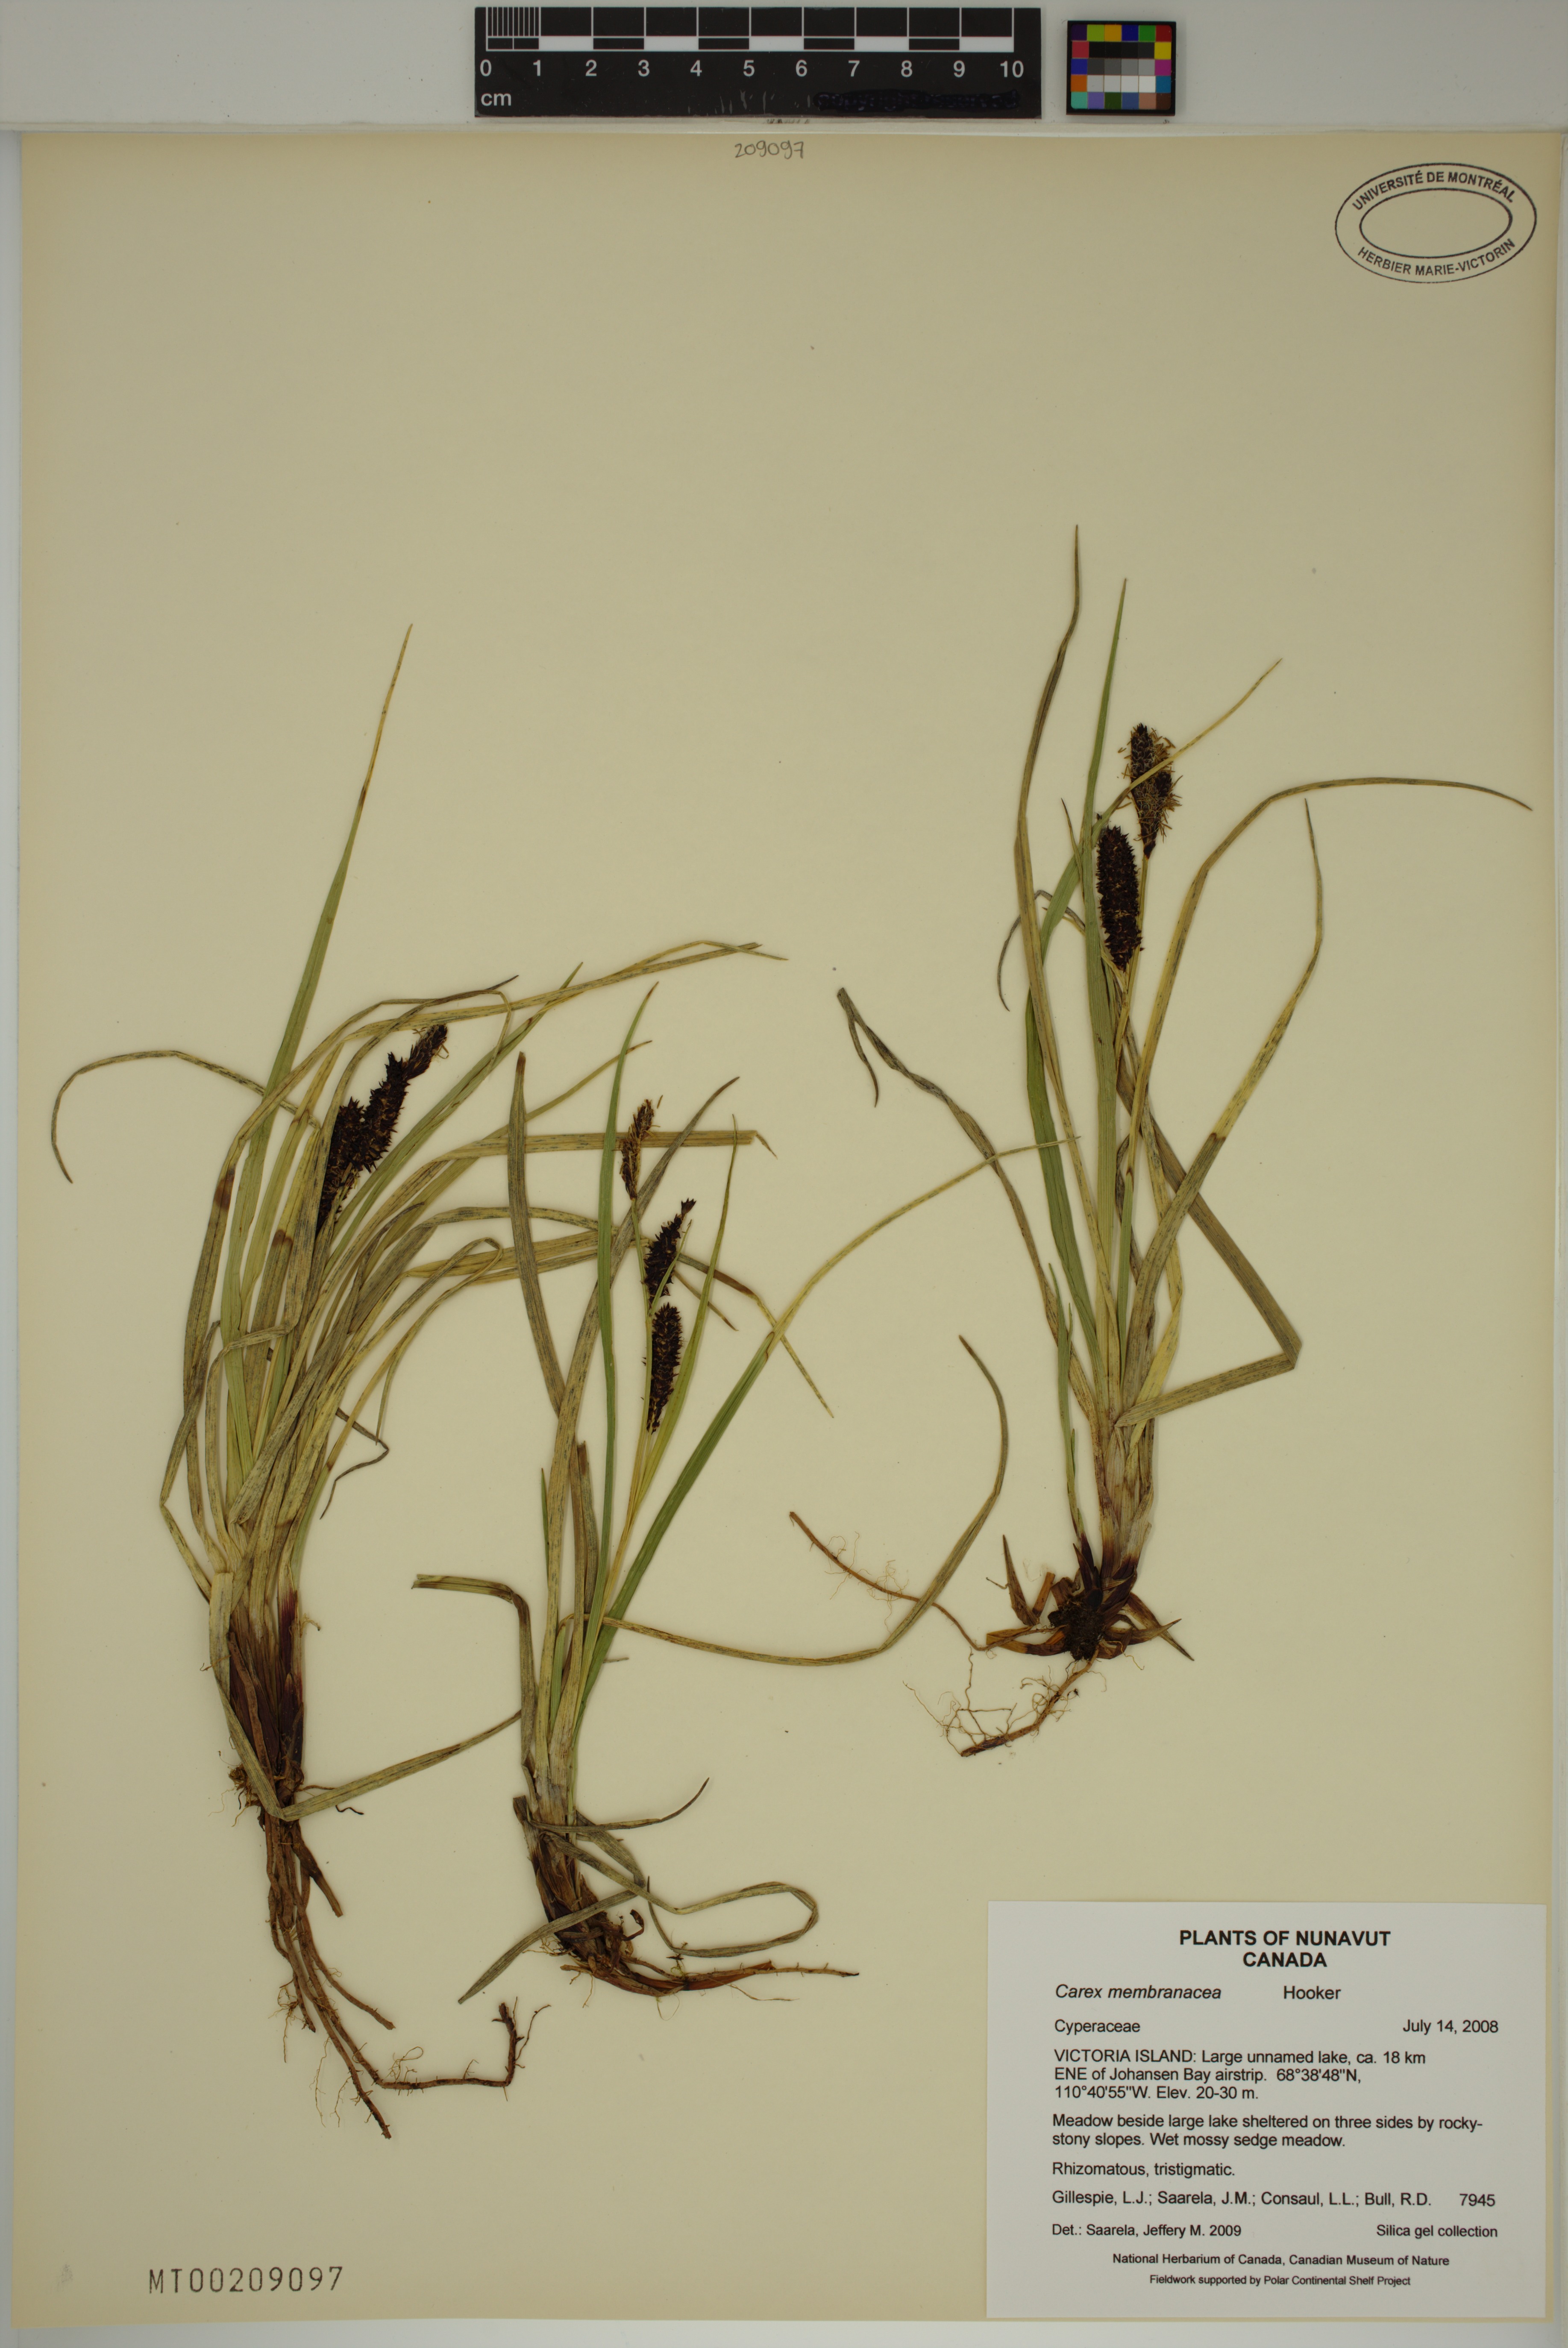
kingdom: Plantae
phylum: Tracheophyta
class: Liliopsida
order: Poales
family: Cyperaceae
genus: Carex
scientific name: Carex membranacea
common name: Fragile sedge
